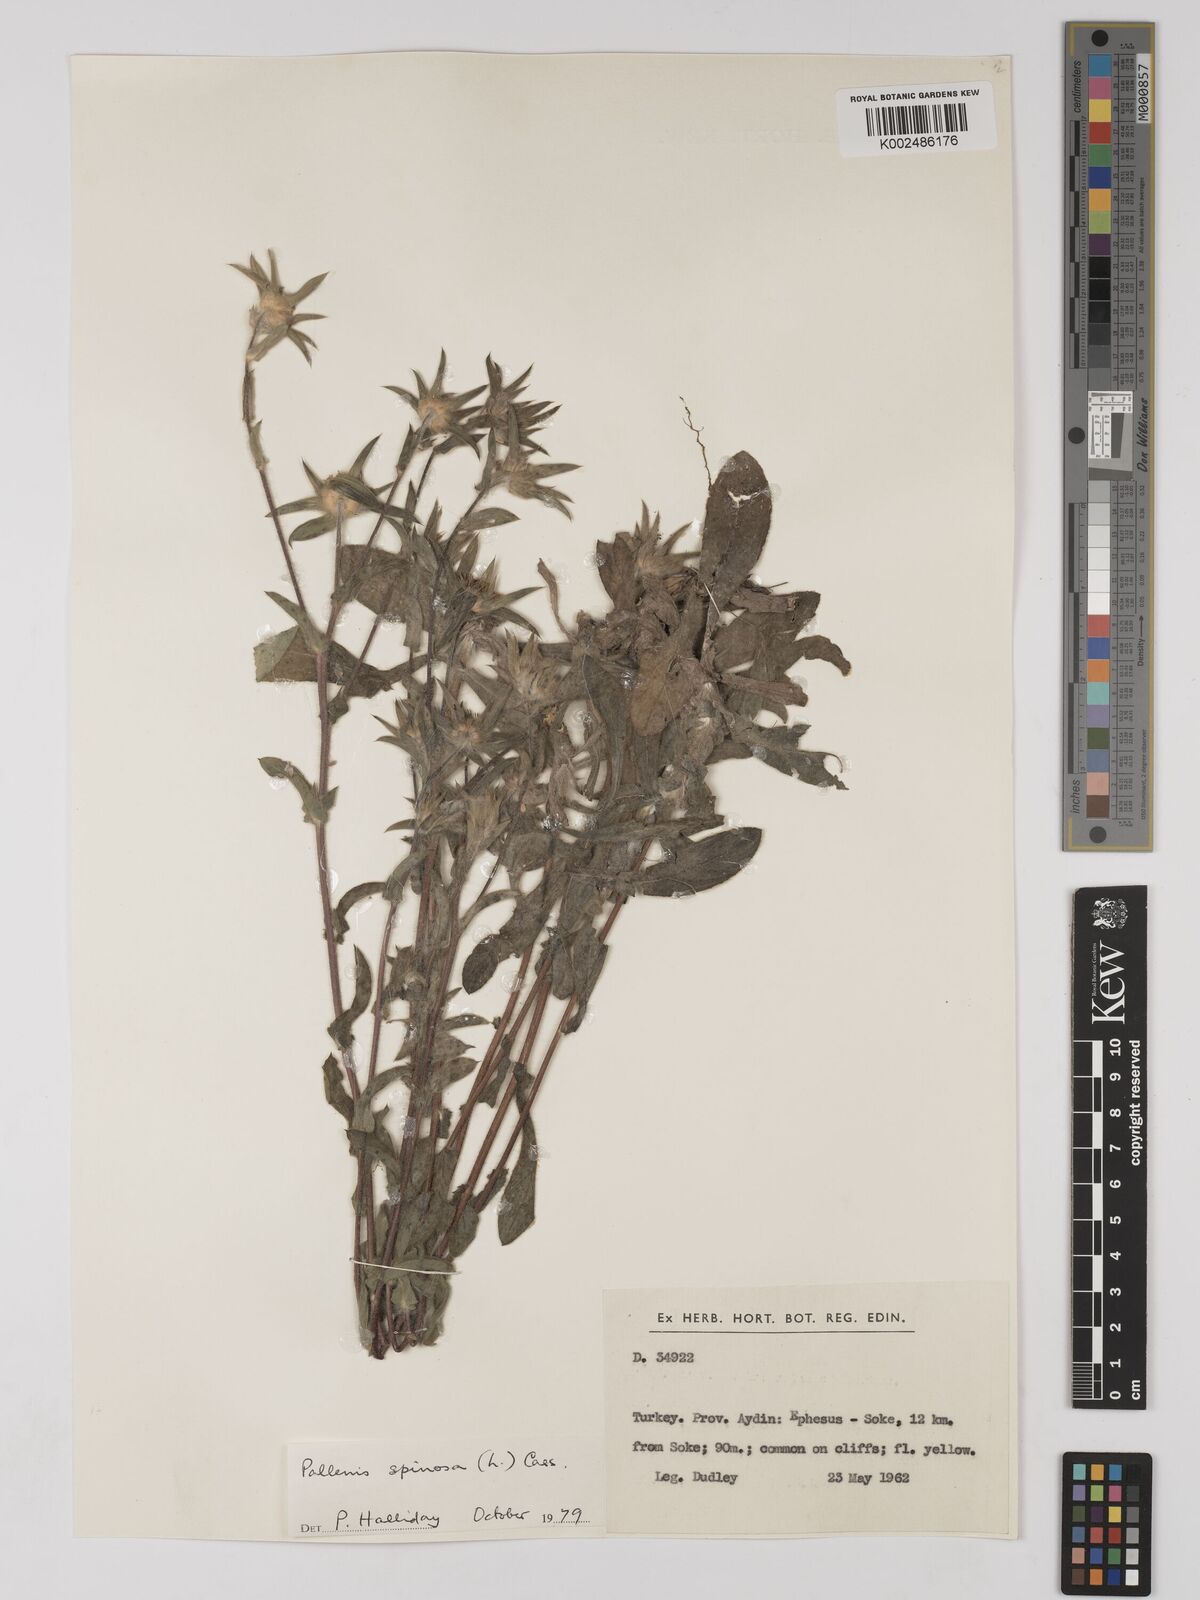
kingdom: Plantae
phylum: Tracheophyta
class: Magnoliopsida
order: Asterales
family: Asteraceae
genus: Pallenis
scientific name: Pallenis spinosa
